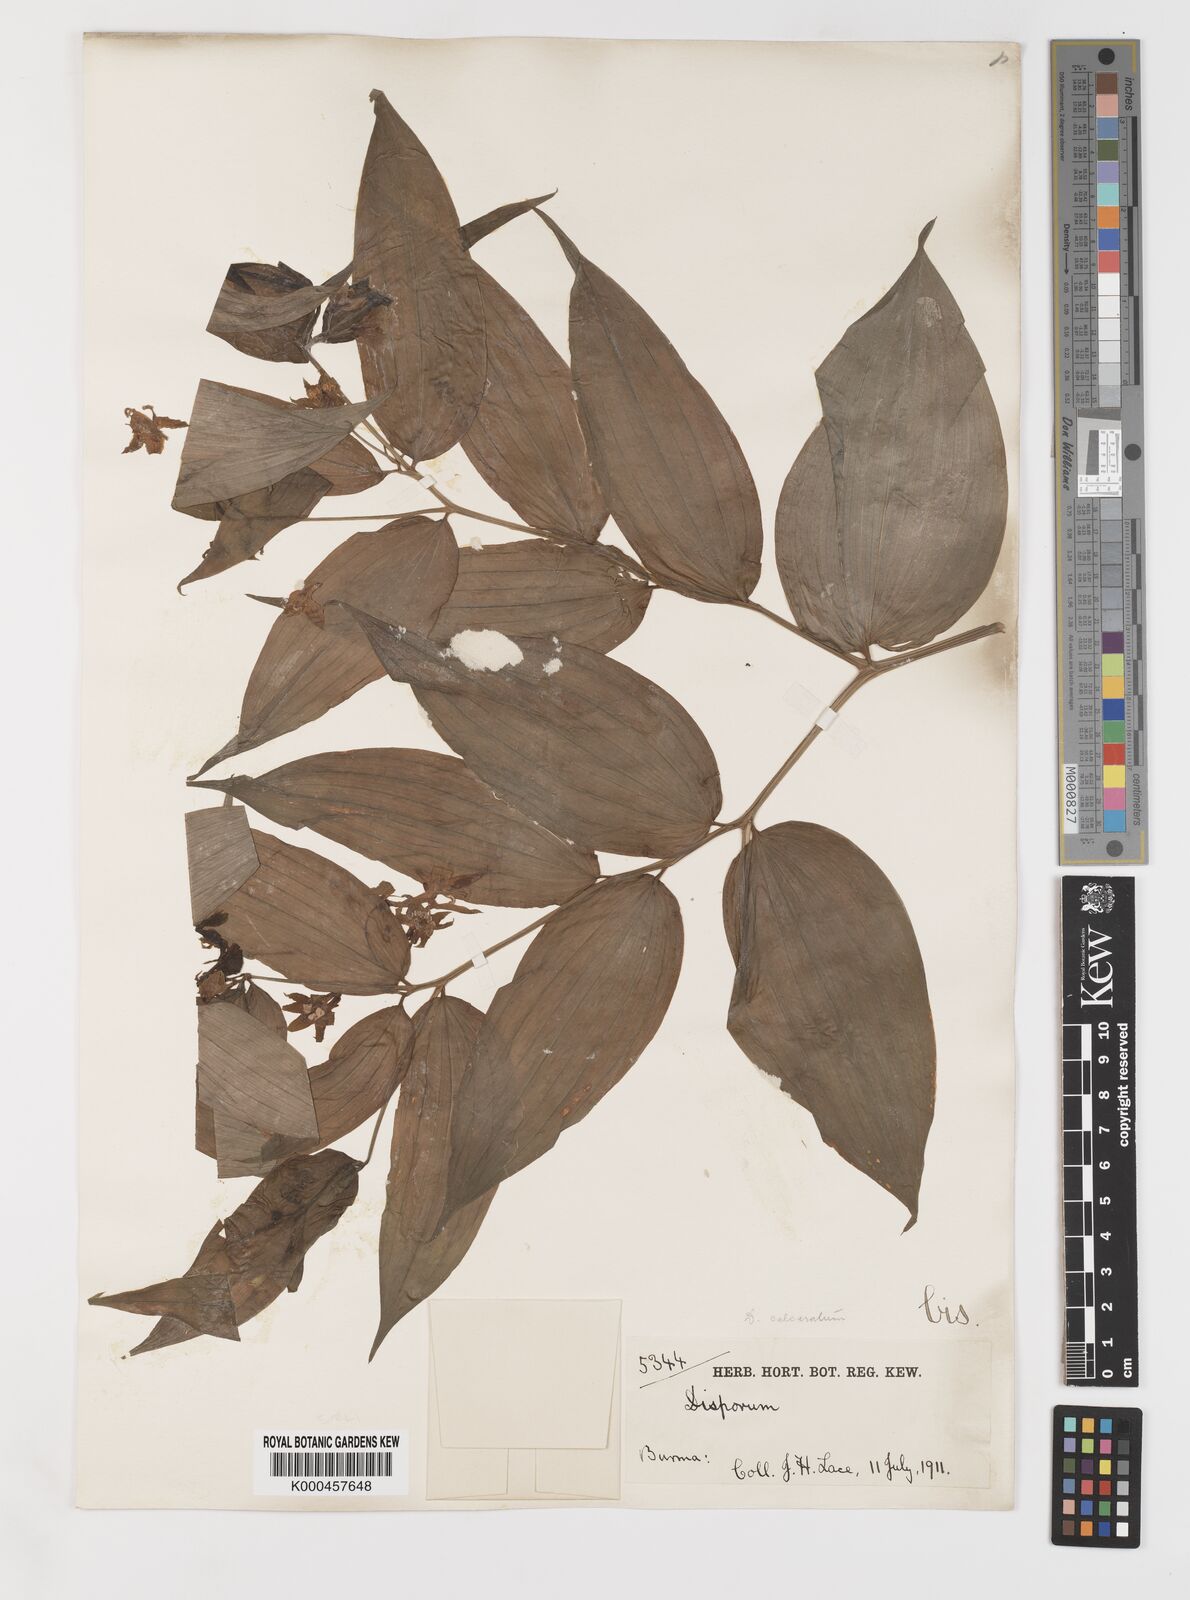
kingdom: Plantae
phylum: Tracheophyta
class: Liliopsida
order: Liliales
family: Colchicaceae
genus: Disporum
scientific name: Disporum calcaratum
